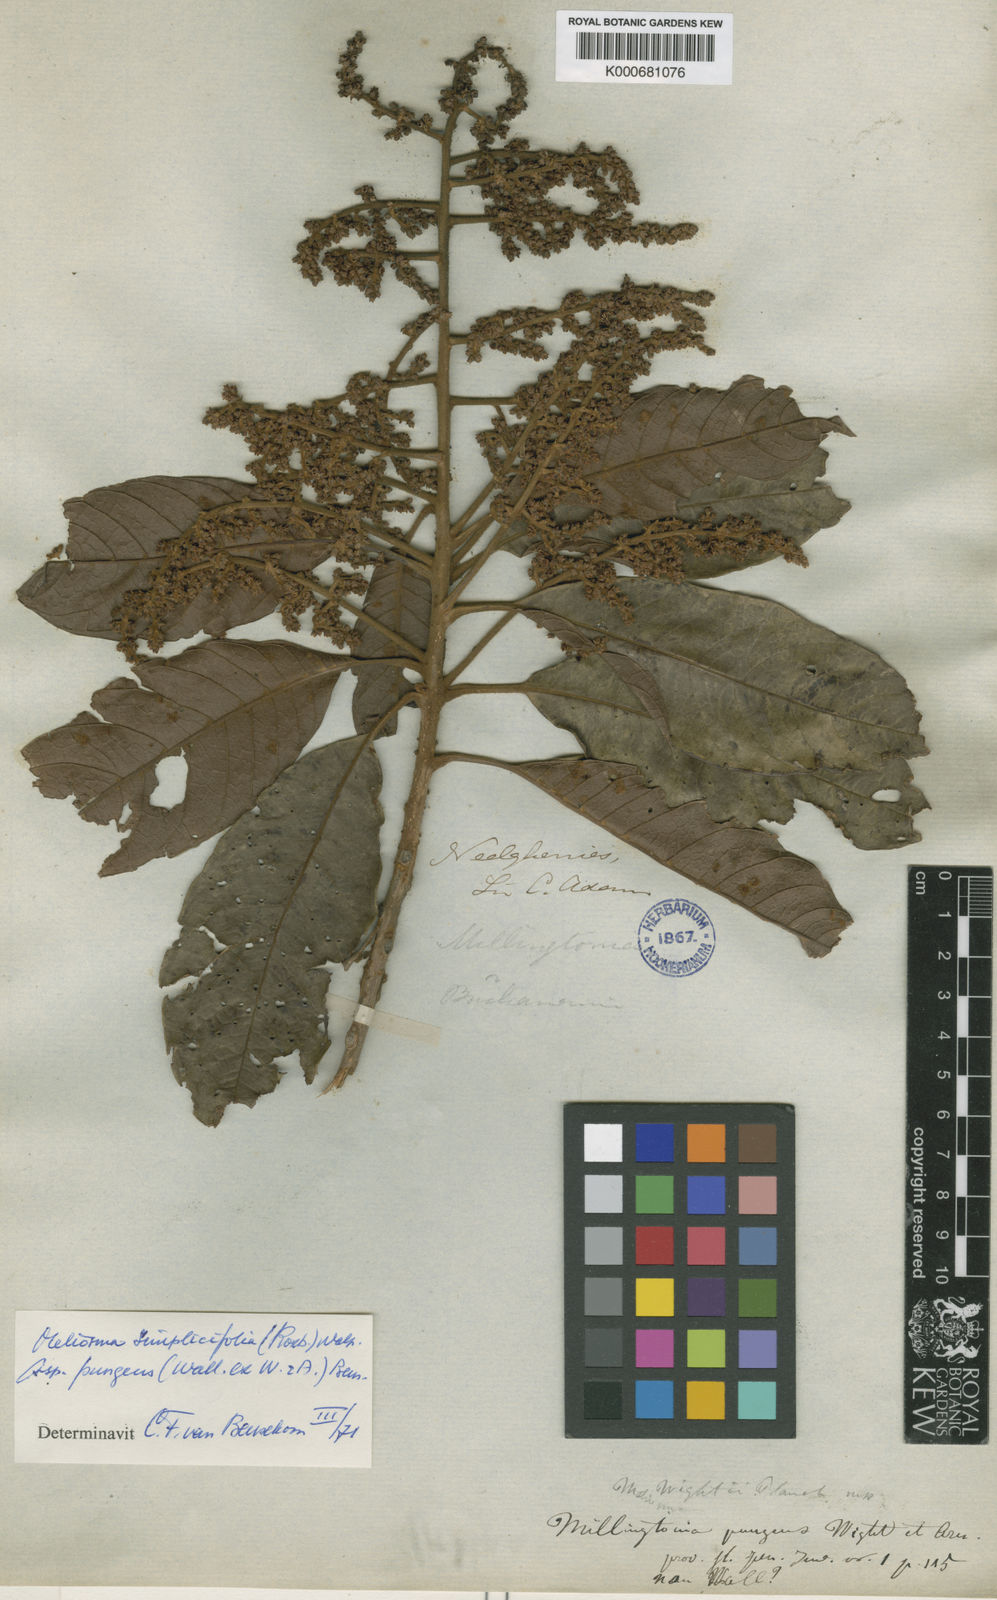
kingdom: Plantae
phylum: Tracheophyta
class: Magnoliopsida
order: Proteales
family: Sabiaceae
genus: Meliosma
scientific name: Meliosma simplicifolia
